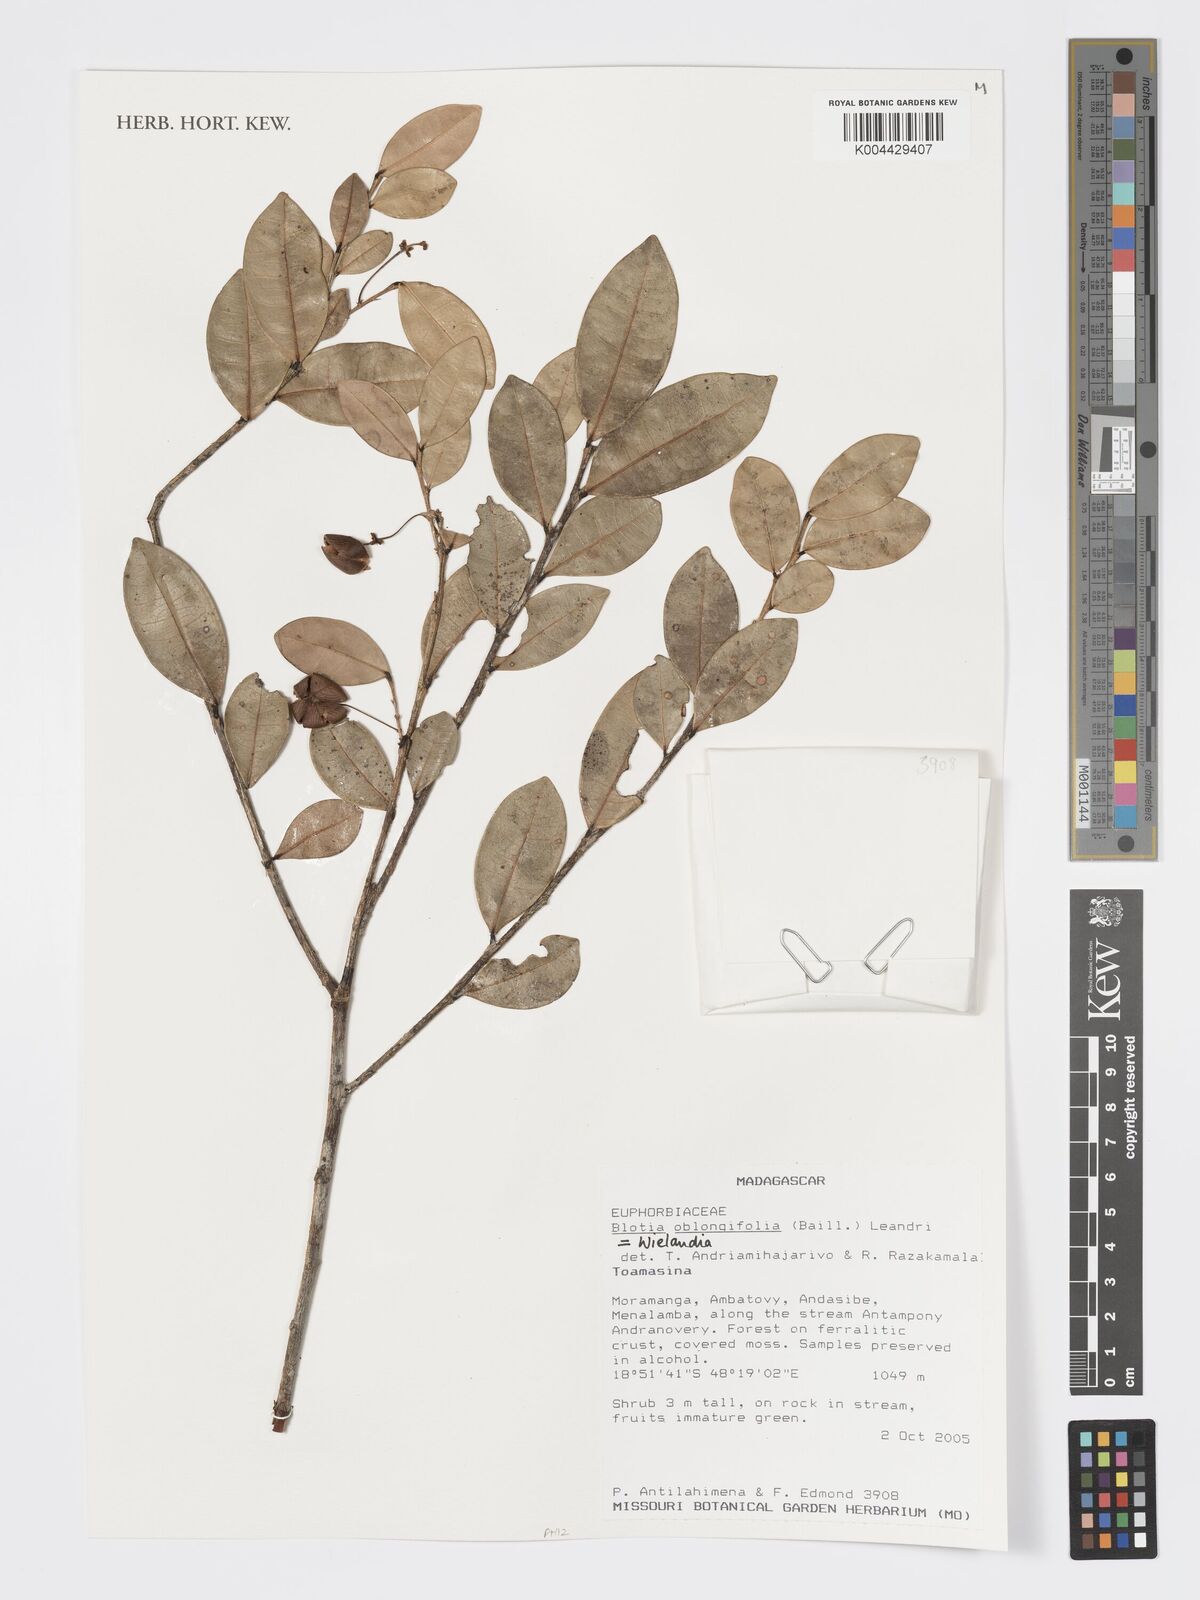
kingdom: Plantae
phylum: Tracheophyta
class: Magnoliopsida
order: Malpighiales
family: Phyllanthaceae
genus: Wielandia
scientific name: Wielandia oblongifolia
